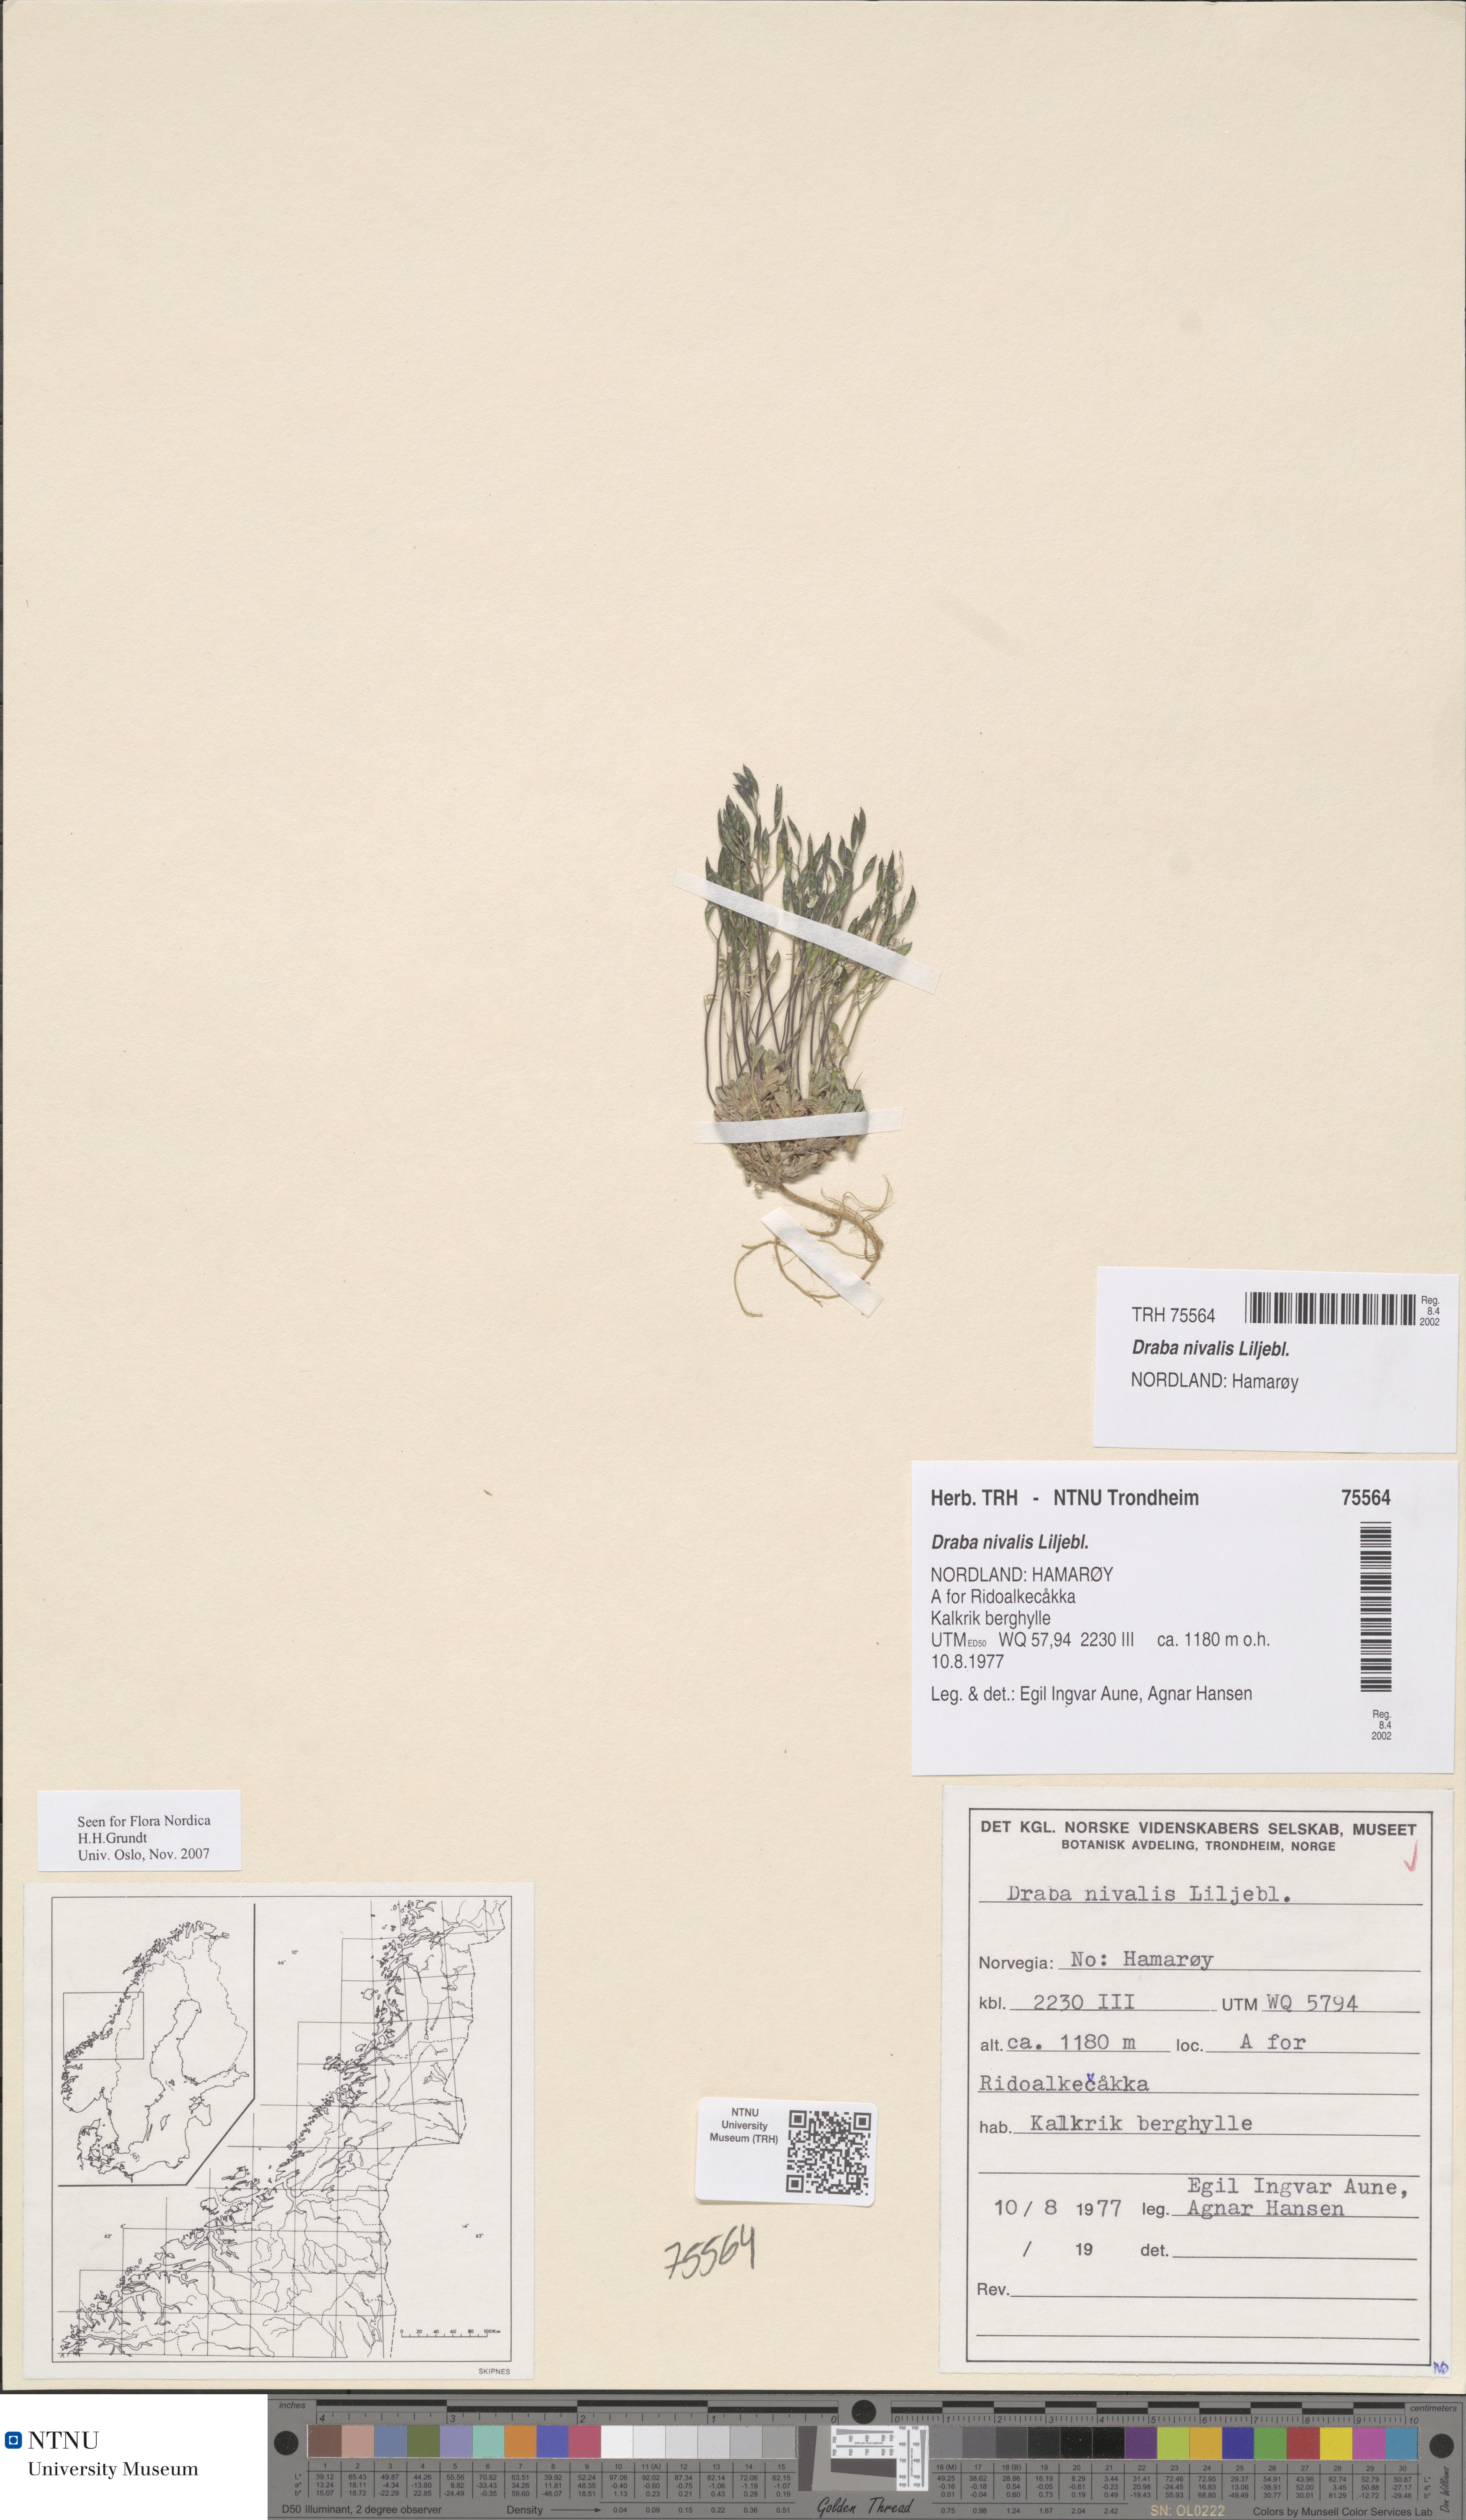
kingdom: Plantae
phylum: Tracheophyta
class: Magnoliopsida
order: Brassicales
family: Brassicaceae
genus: Draba
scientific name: Draba nivalis
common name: Snow draba
